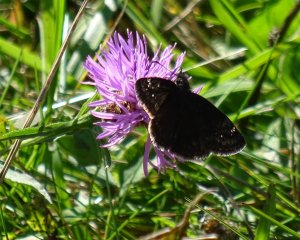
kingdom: Animalia
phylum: Arthropoda
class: Insecta
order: Lepidoptera
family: Hesperiidae
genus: Gesta
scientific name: Gesta
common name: Wild Indigo Duskywing
